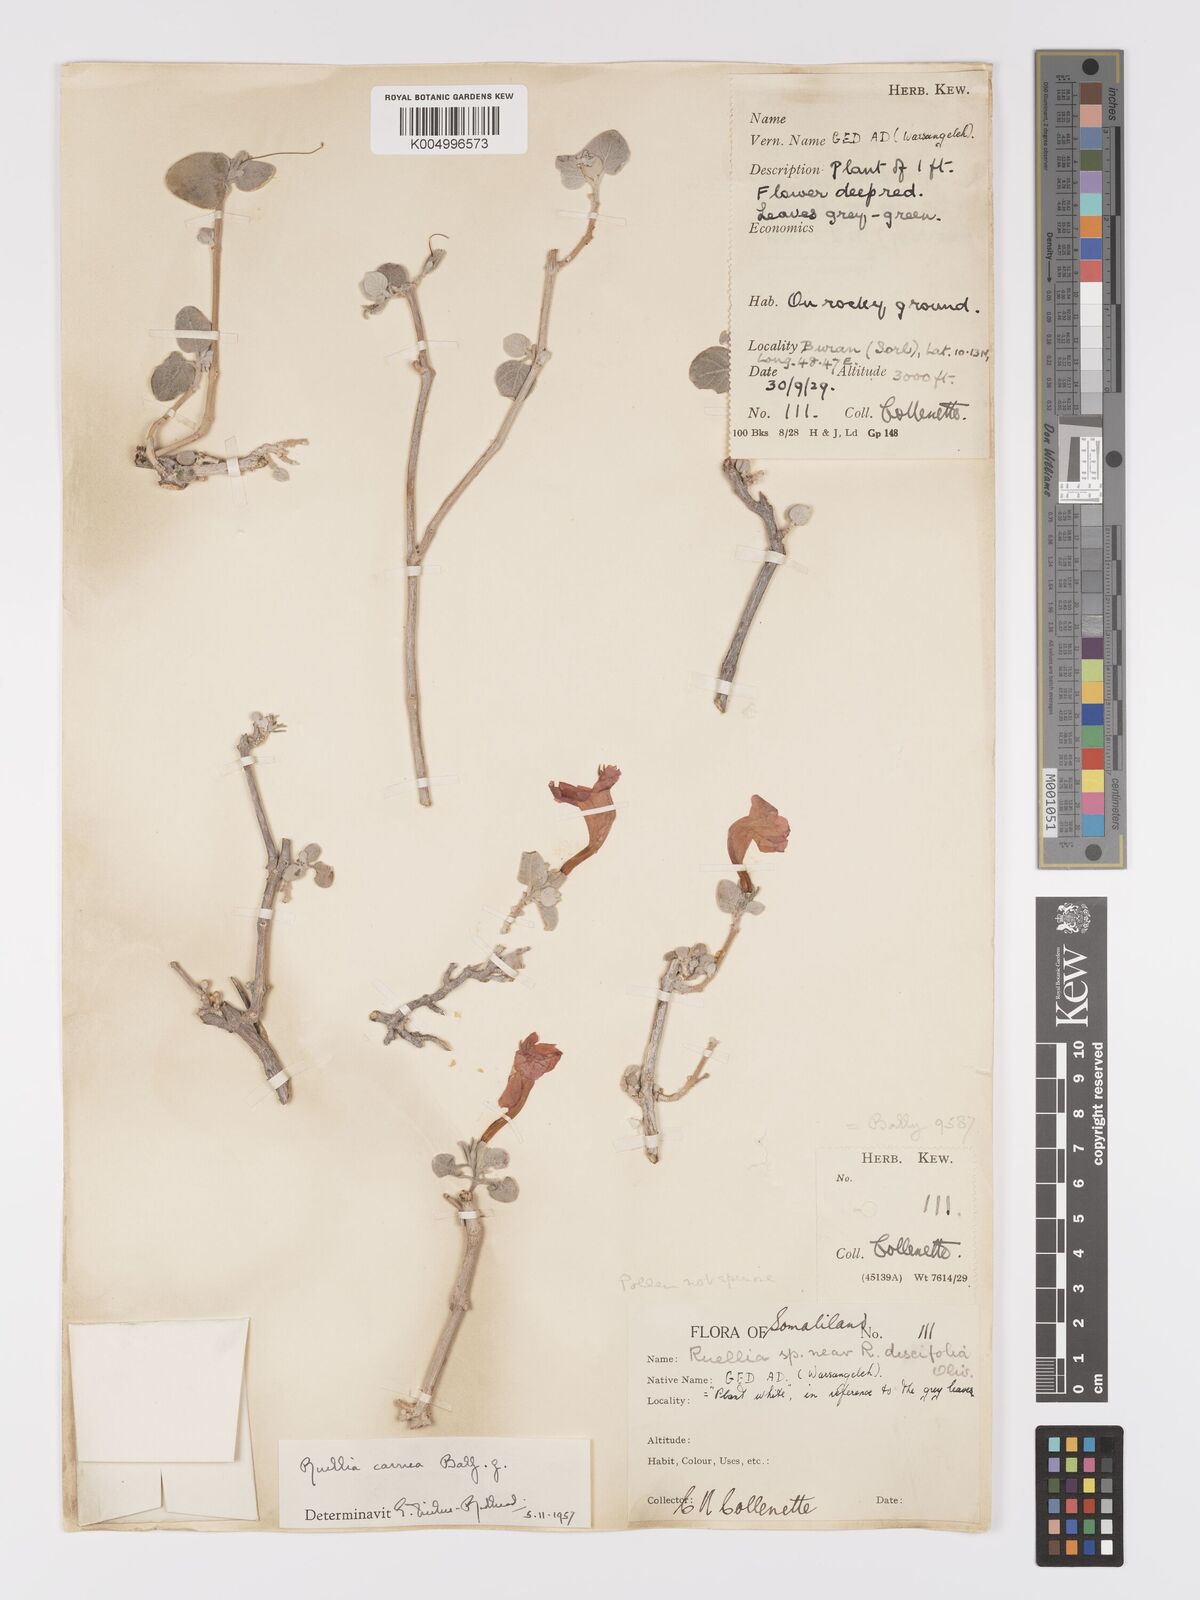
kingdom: Plantae
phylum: Tracheophyta
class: Magnoliopsida
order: Lamiales
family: Acanthaceae
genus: Ruellia
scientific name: Ruellia carnea
